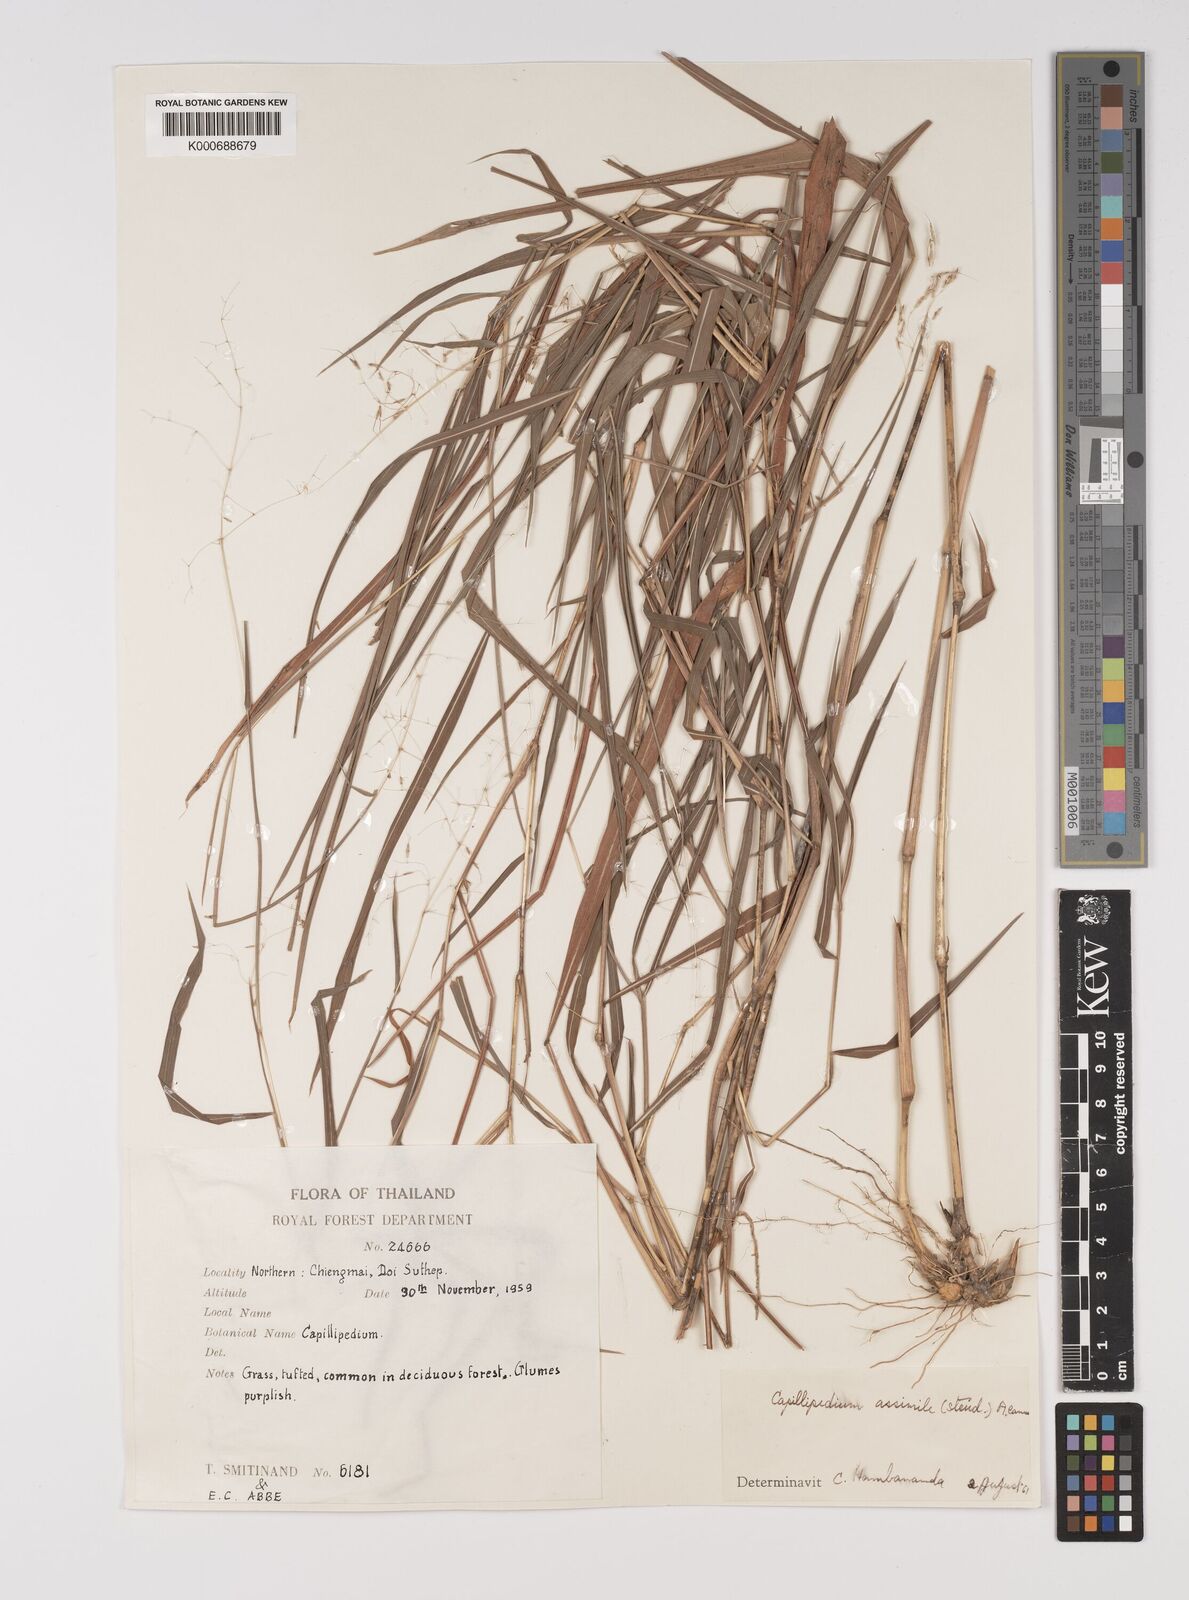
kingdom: Plantae
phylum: Tracheophyta
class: Liliopsida
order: Poales
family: Poaceae
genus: Capillipedium
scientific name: Capillipedium assimile
